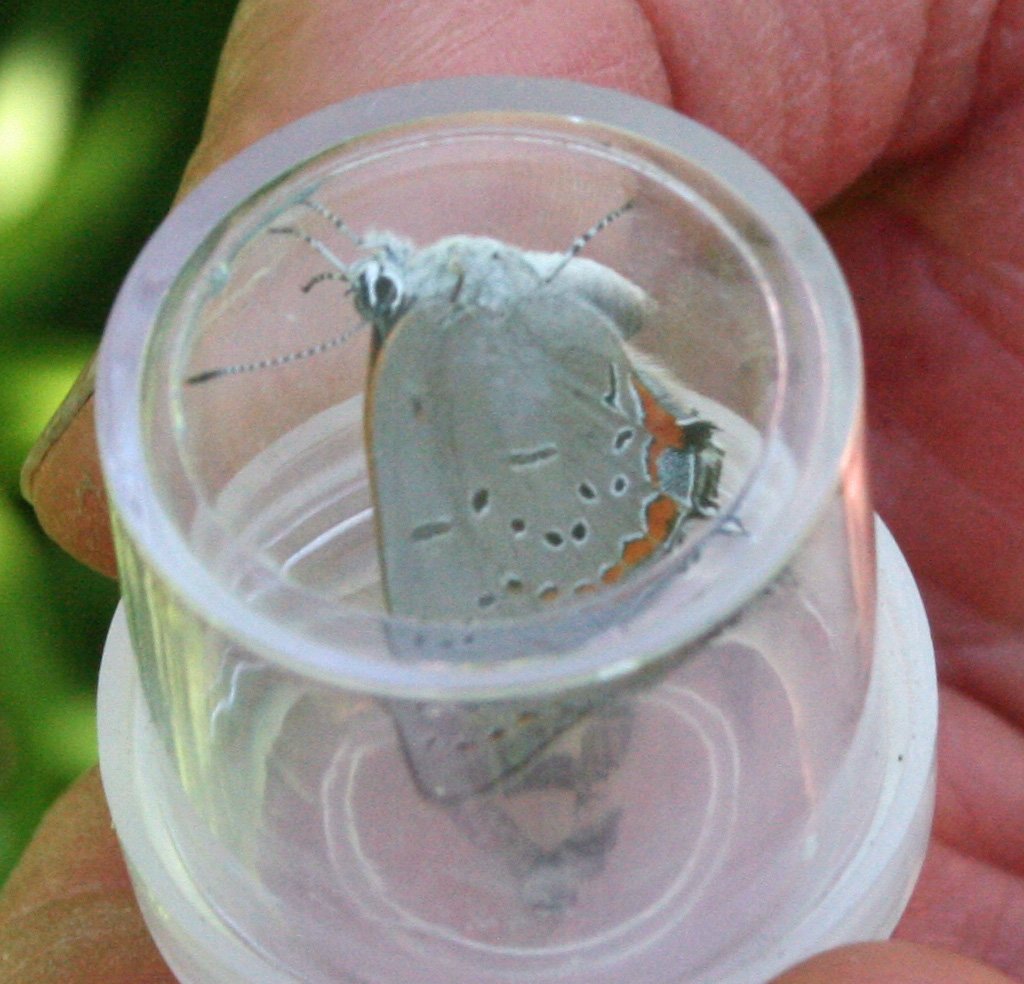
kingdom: Animalia
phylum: Arthropoda
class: Insecta
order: Lepidoptera
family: Lycaenidae
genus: Strymon
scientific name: Strymon acadica
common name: Acadian Hairstreak
